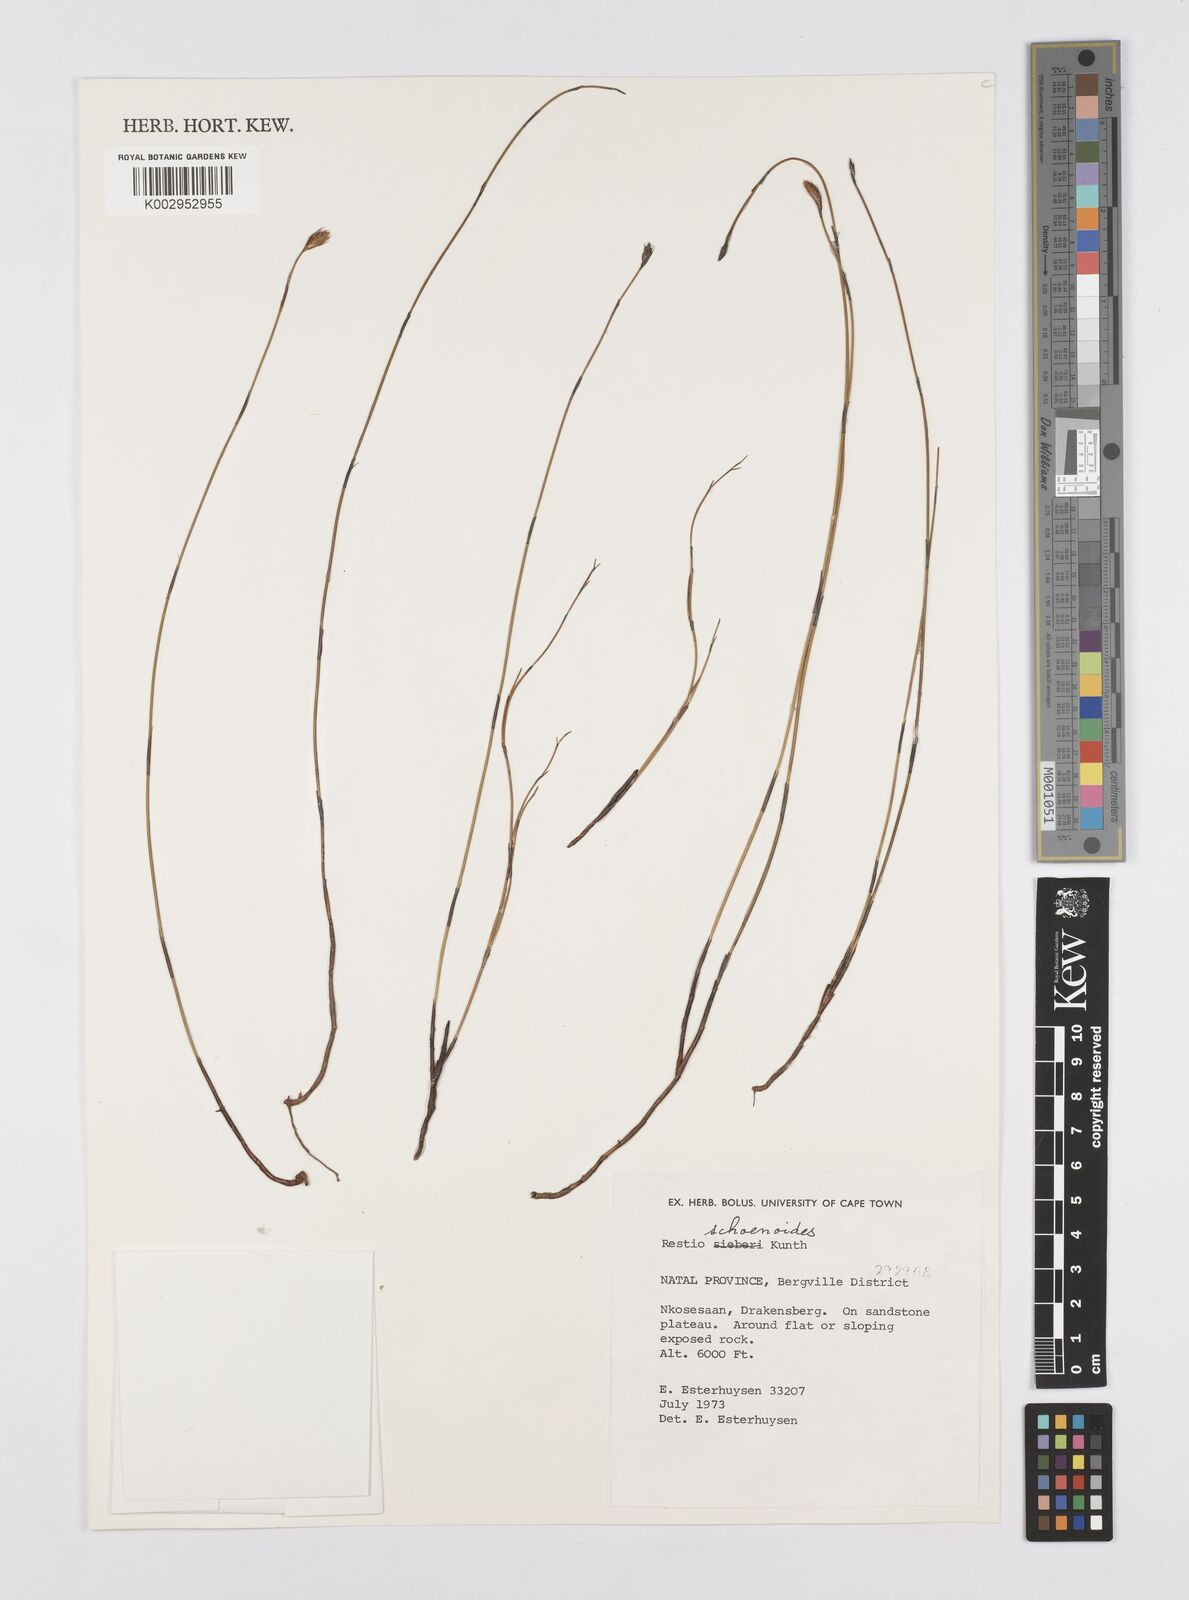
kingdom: Plantae
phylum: Tracheophyta
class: Liliopsida
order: Poales
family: Restionaceae
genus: Restio
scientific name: Restio schoenoides
